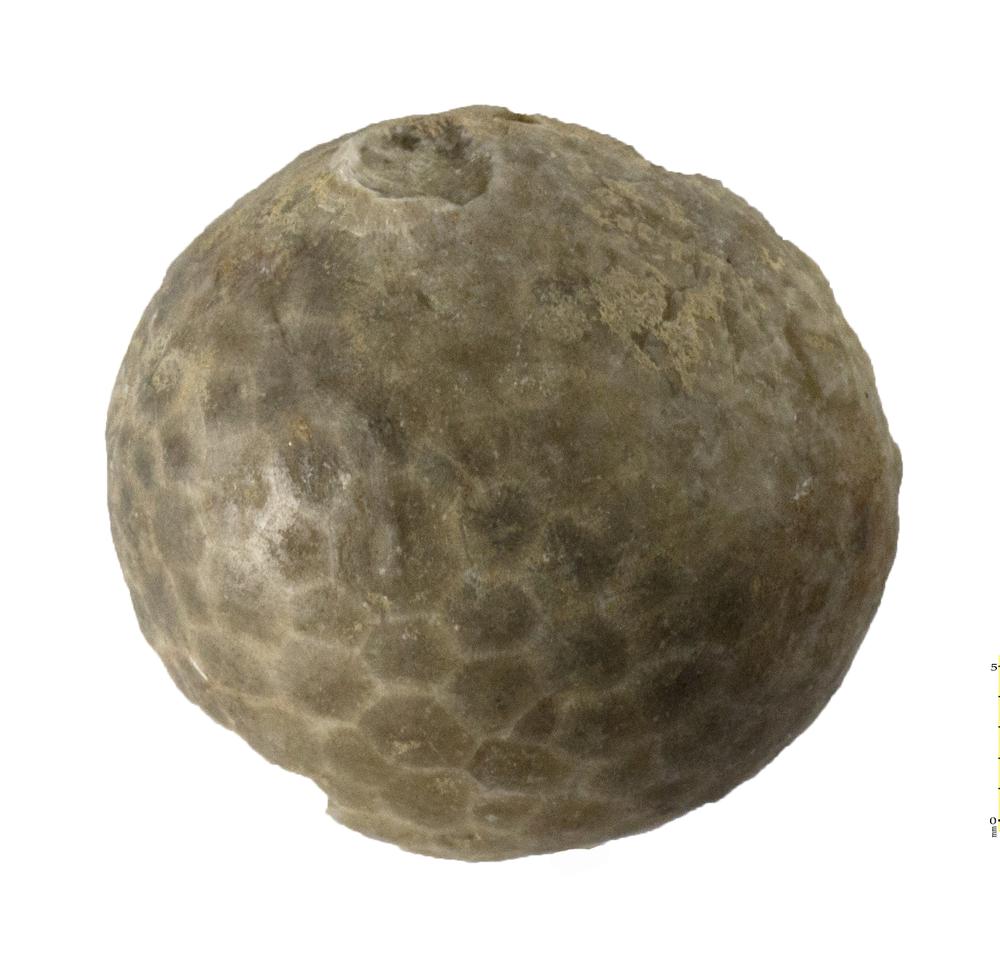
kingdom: Animalia
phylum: Echinodermata
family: Echinosphaeritidae
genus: Echinosphaerites
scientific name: Echinosphaerites Echinus aurantium
